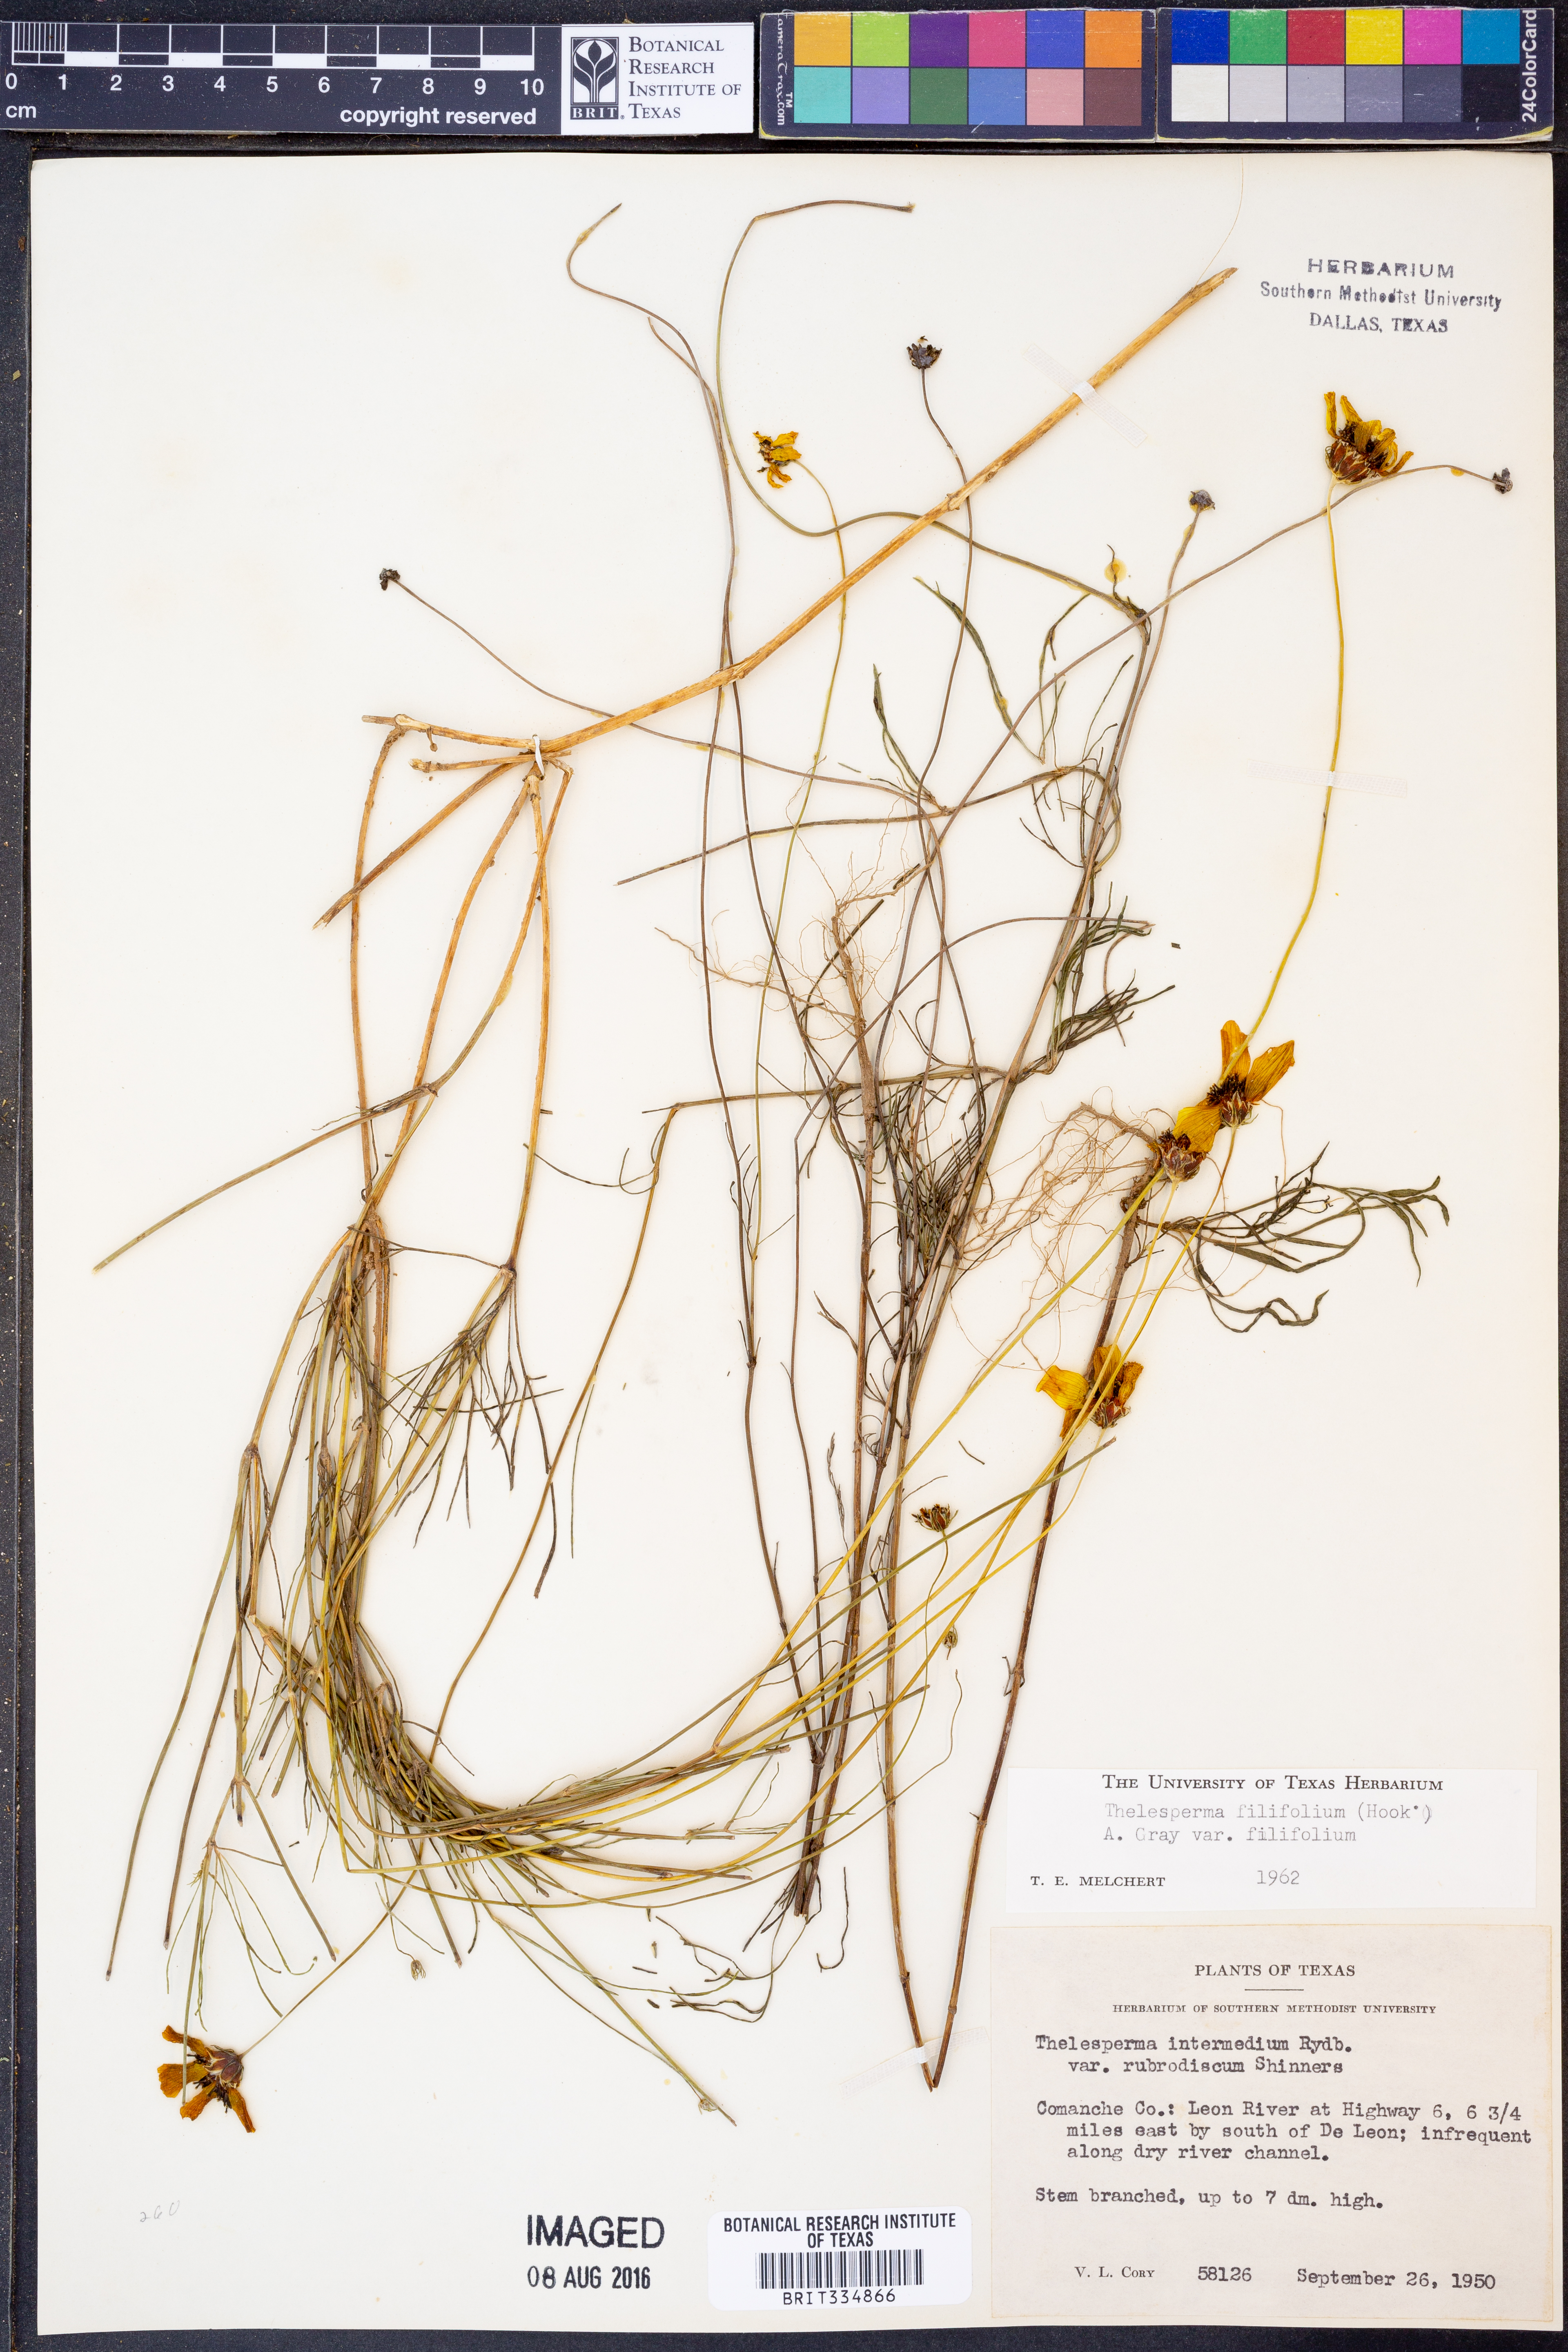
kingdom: Plantae
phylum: Tracheophyta
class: Magnoliopsida
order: Asterales
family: Asteraceae
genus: Thelesperma
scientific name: Thelesperma filifolium
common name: Stiff greenthread
